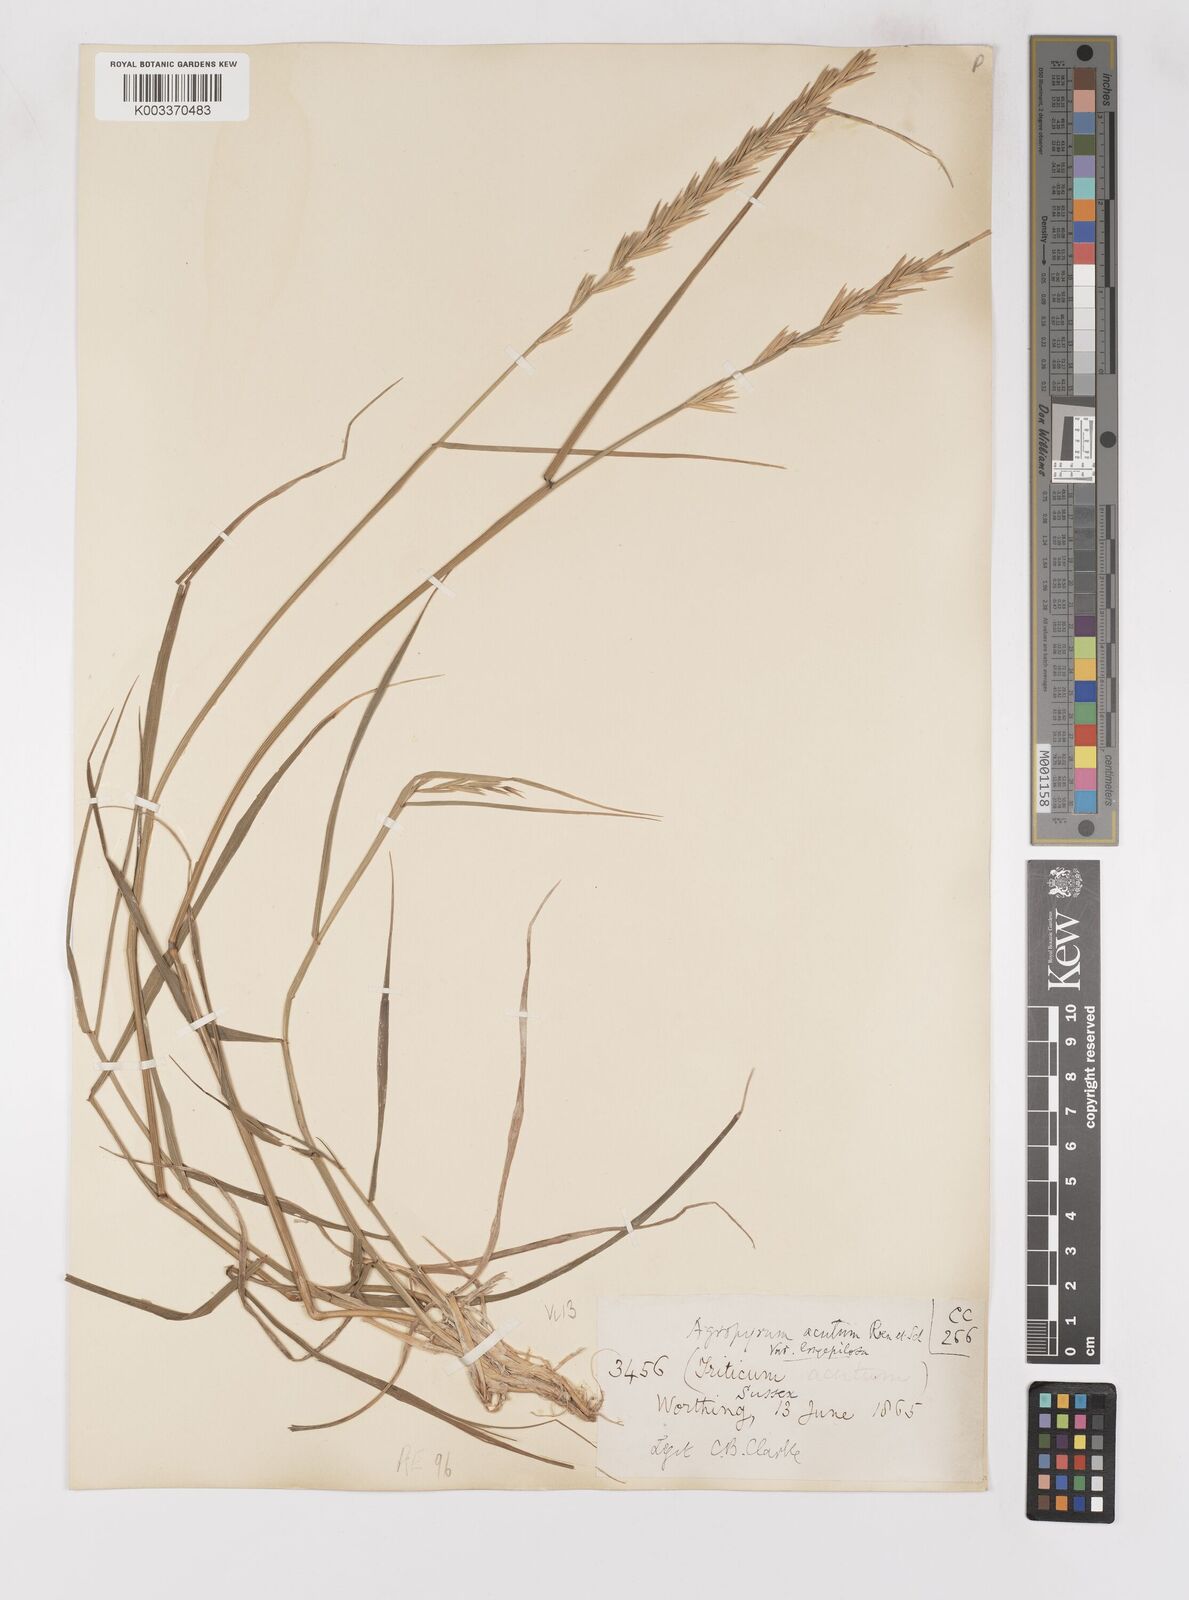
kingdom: Plantae
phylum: Tracheophyta
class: Liliopsida
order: Poales
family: Poaceae
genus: Thinoelymus
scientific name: Thinoelymus obtusiusculus
